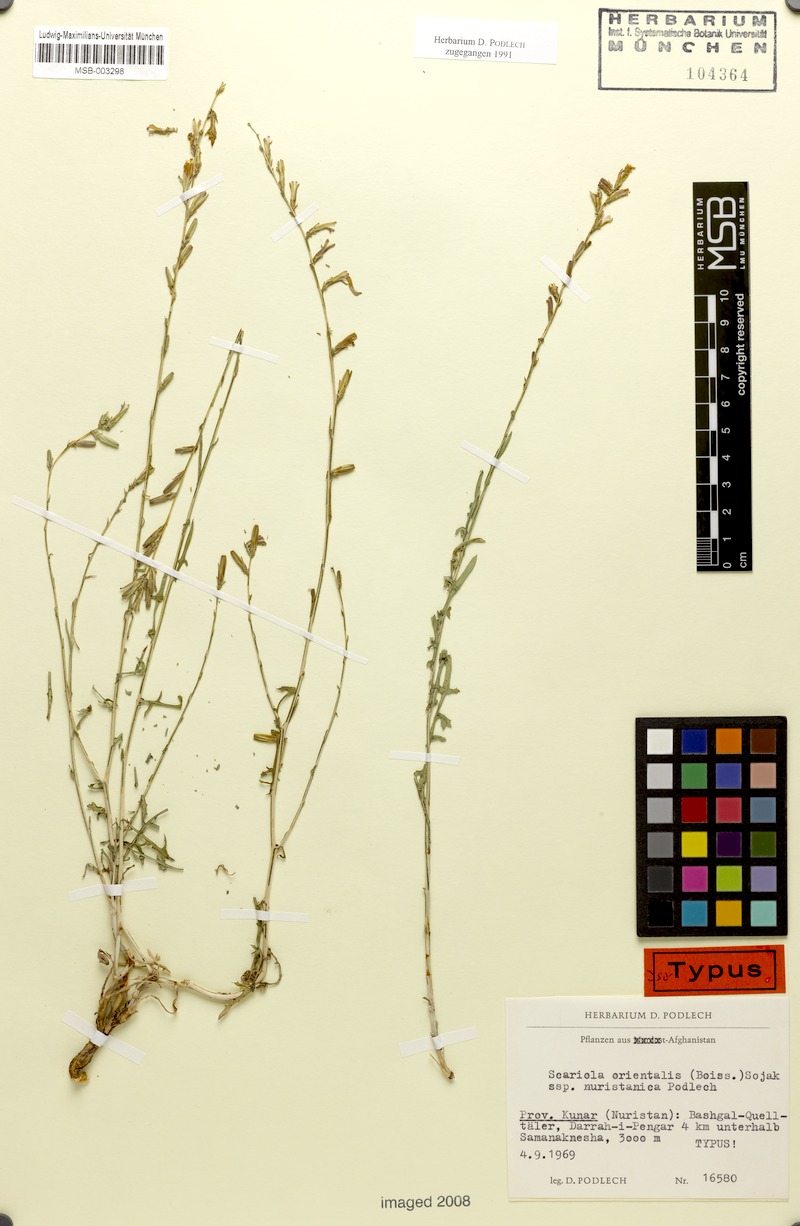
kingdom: Plantae
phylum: Tracheophyta
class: Magnoliopsida
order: Asterales
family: Asteraceae
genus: Lactuca
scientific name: Lactuca orientalis
